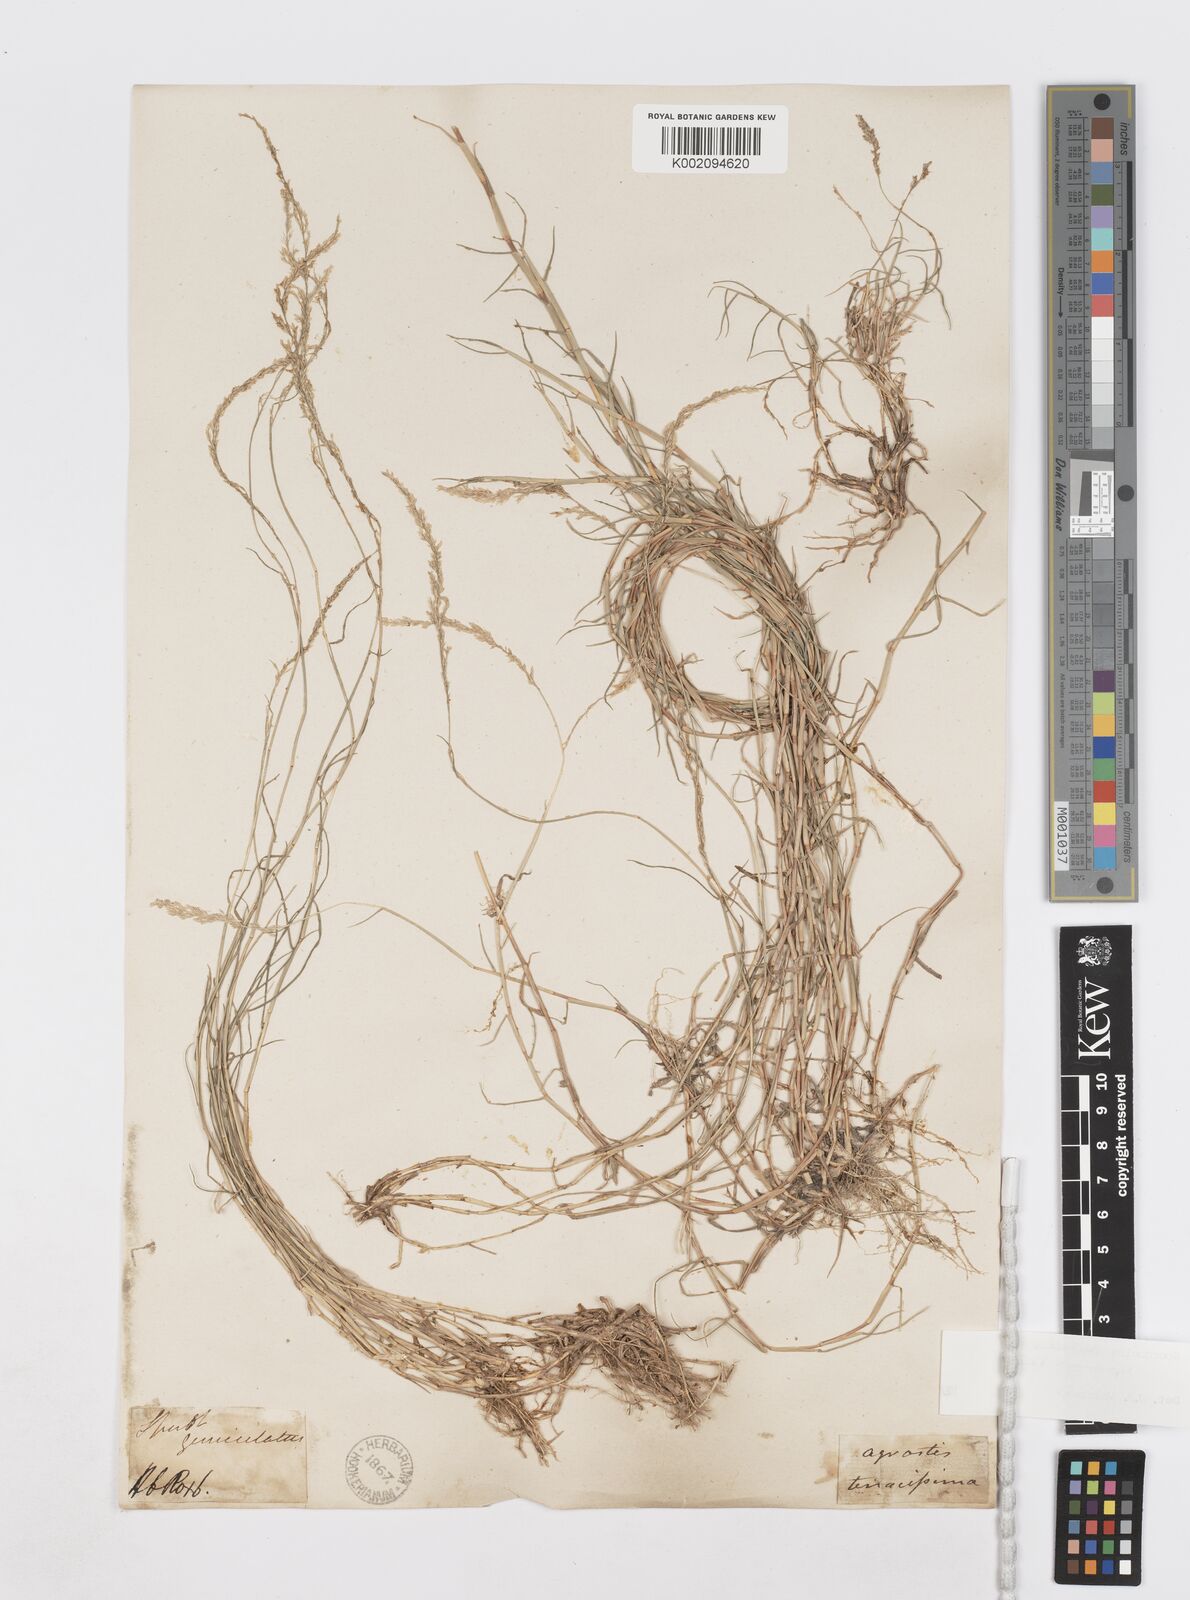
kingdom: Plantae
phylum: Tracheophyta
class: Liliopsida
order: Poales
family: Poaceae
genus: Sporobolus
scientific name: Sporobolus virginicus
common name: Beach dropseed
